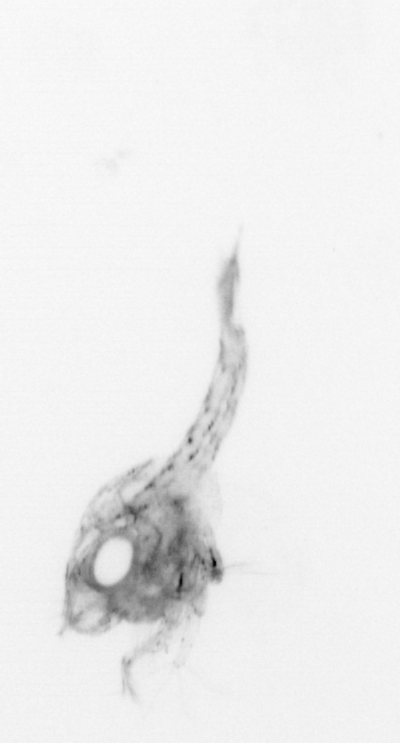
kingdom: Animalia
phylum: Arthropoda
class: Malacostraca
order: Decapoda
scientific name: Decapoda
